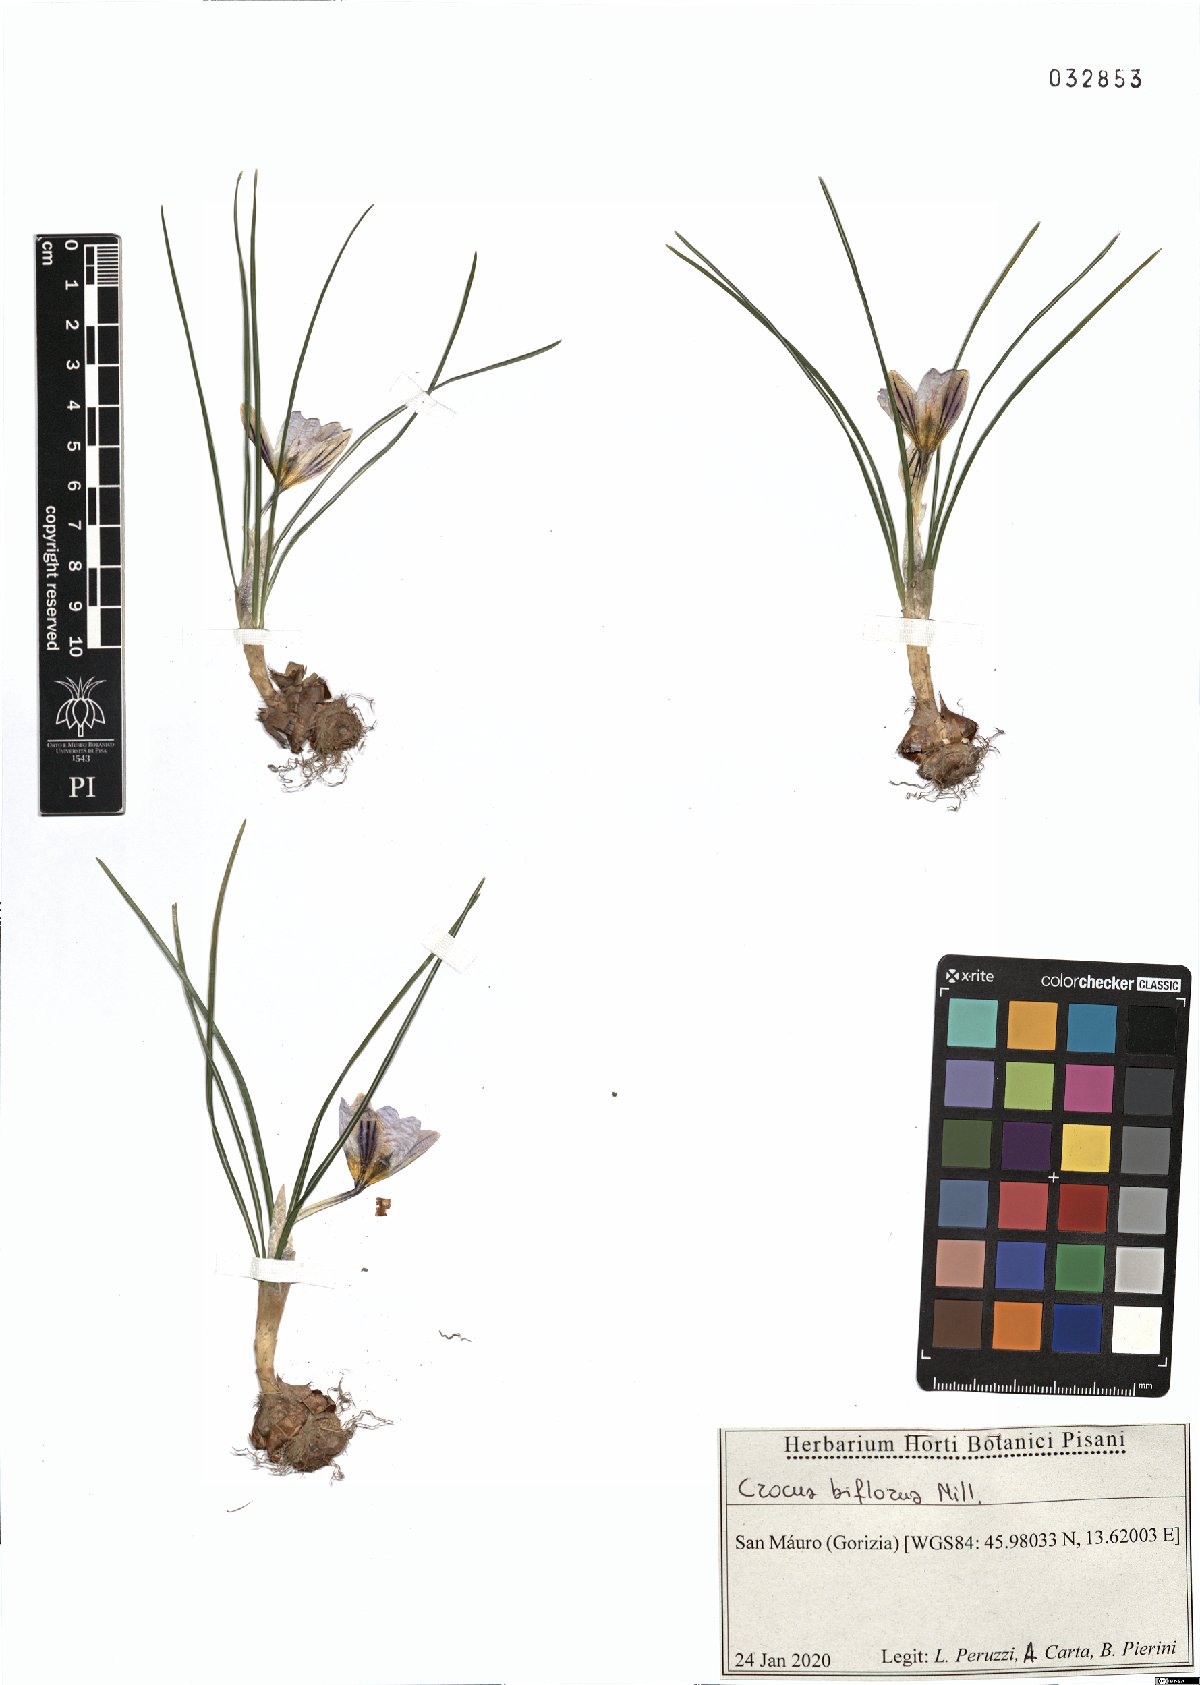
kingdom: Plantae
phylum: Tracheophyta
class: Liliopsida
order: Asparagales
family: Iridaceae
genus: Crocus
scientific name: Crocus biflorus
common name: Silvery crocus
